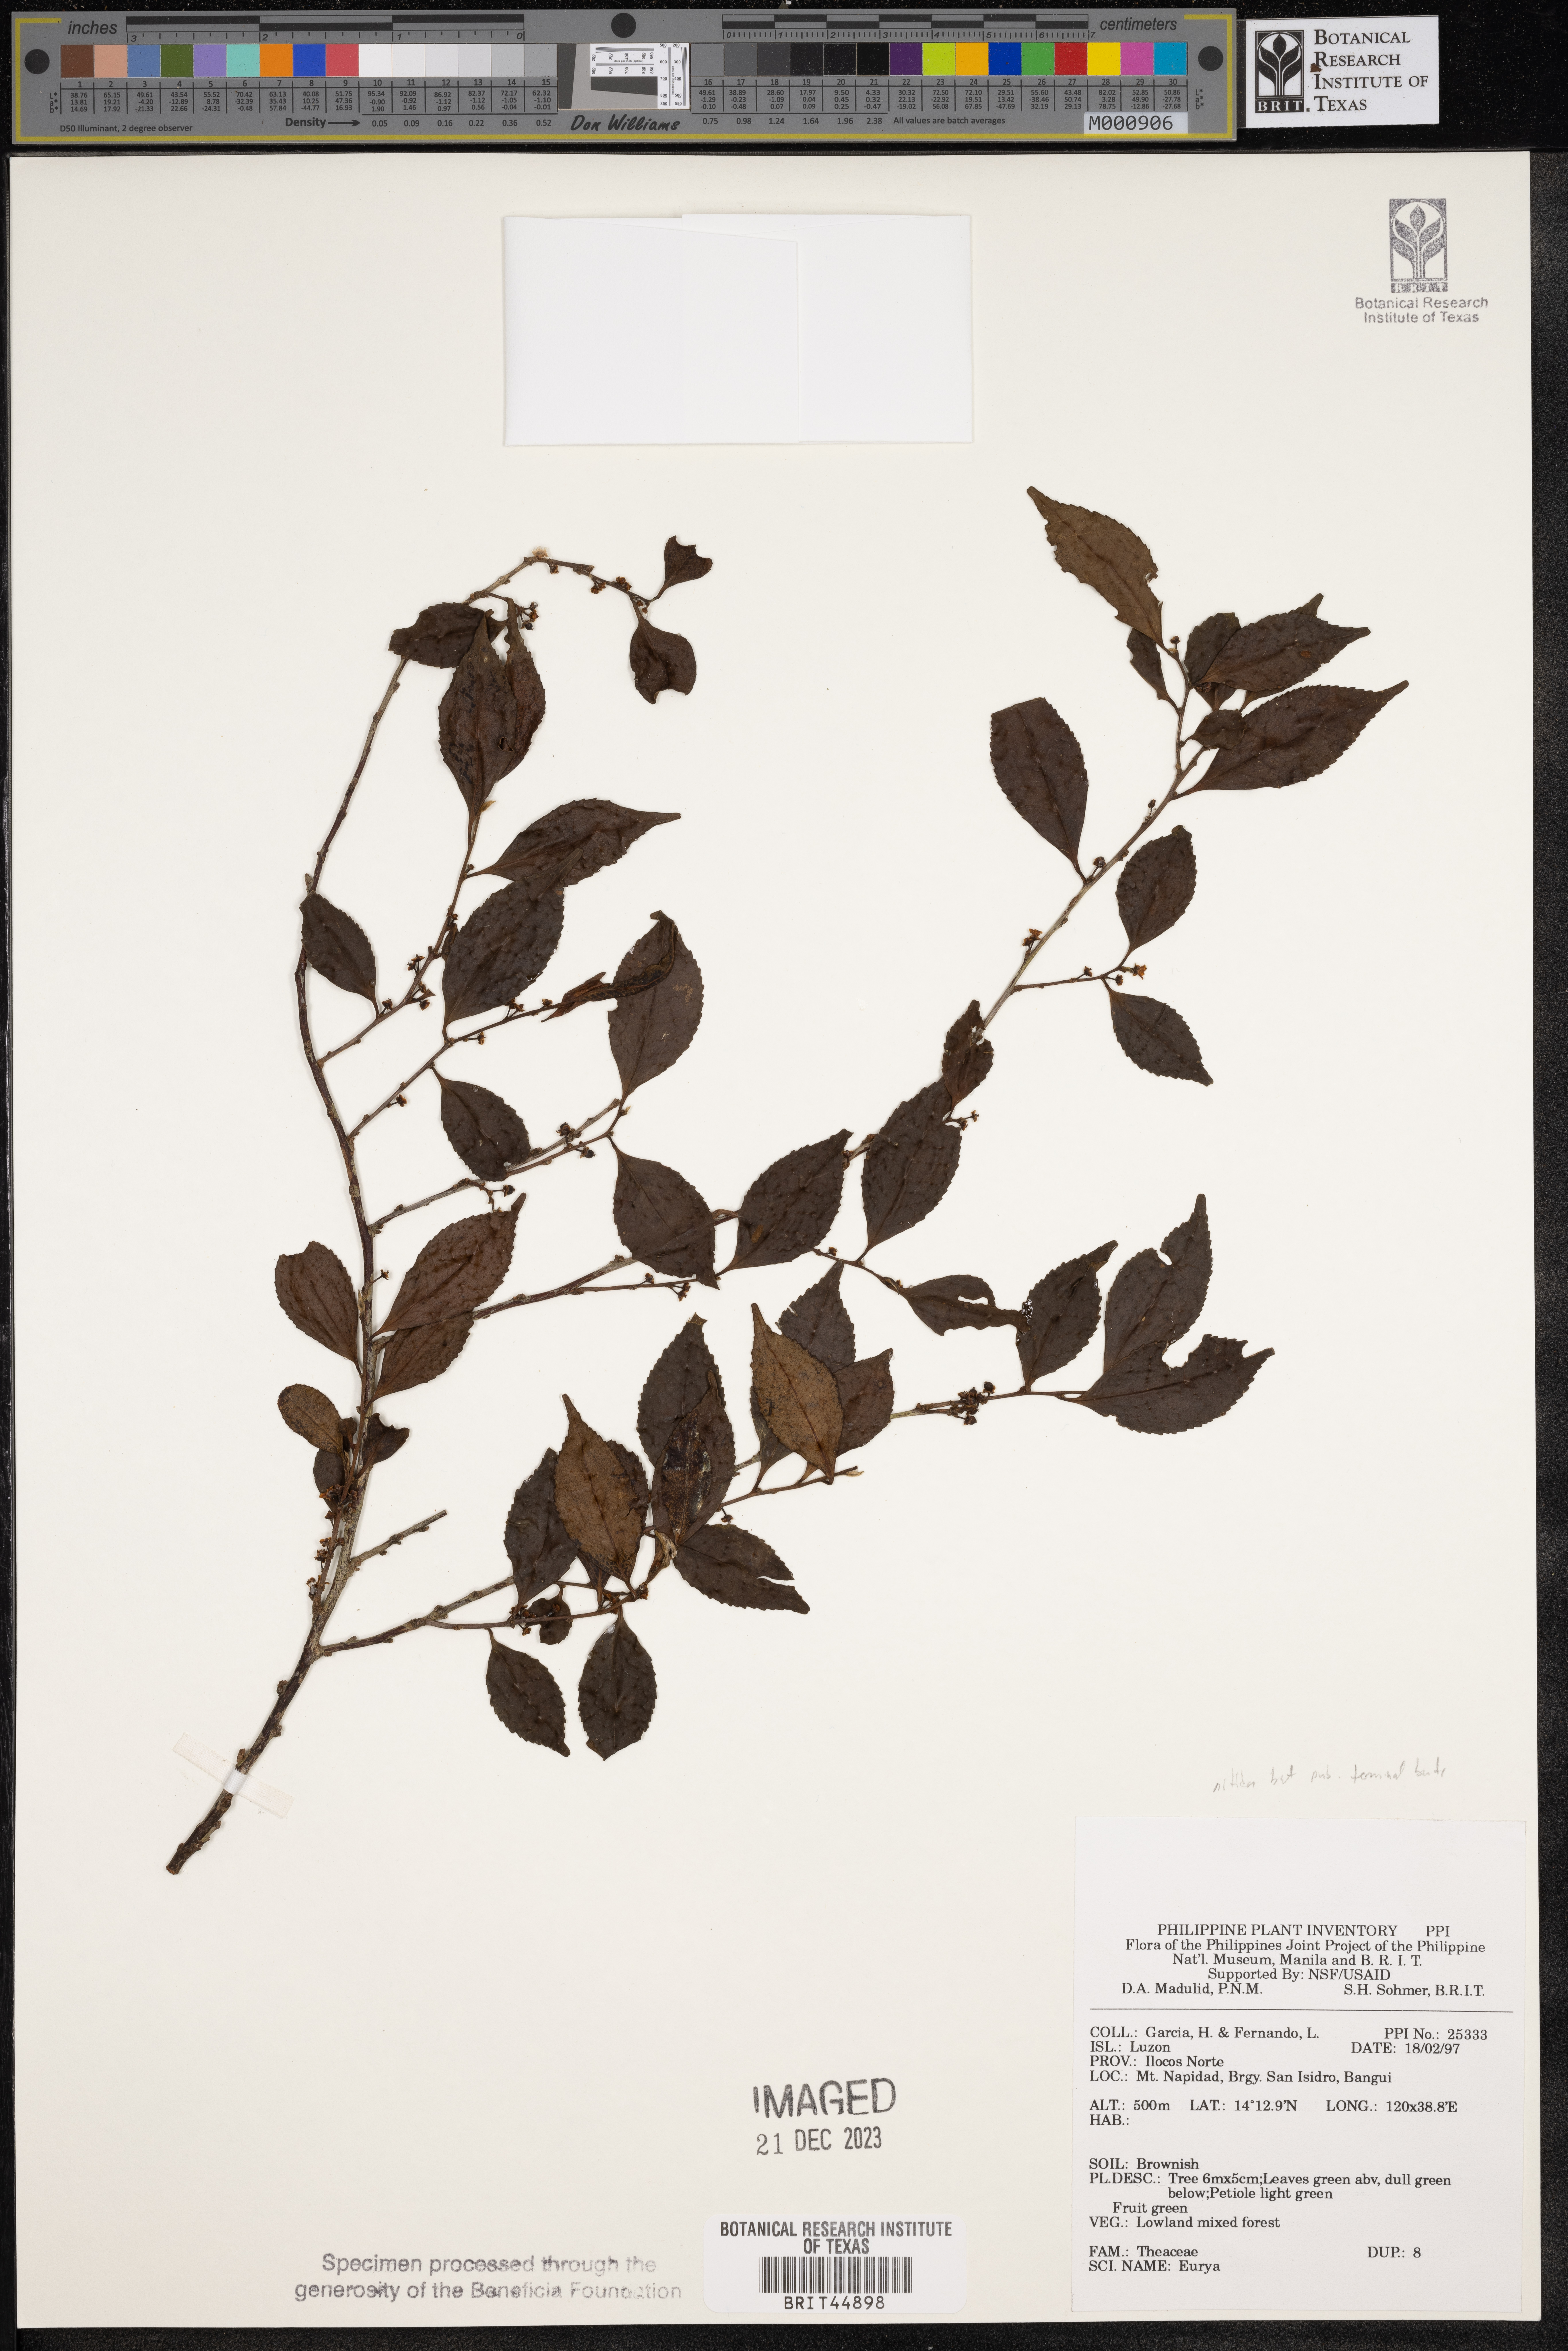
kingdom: Plantae
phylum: Tracheophyta
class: Magnoliopsida
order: Ericales
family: Pentaphylacaceae
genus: Eurya
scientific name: Eurya
